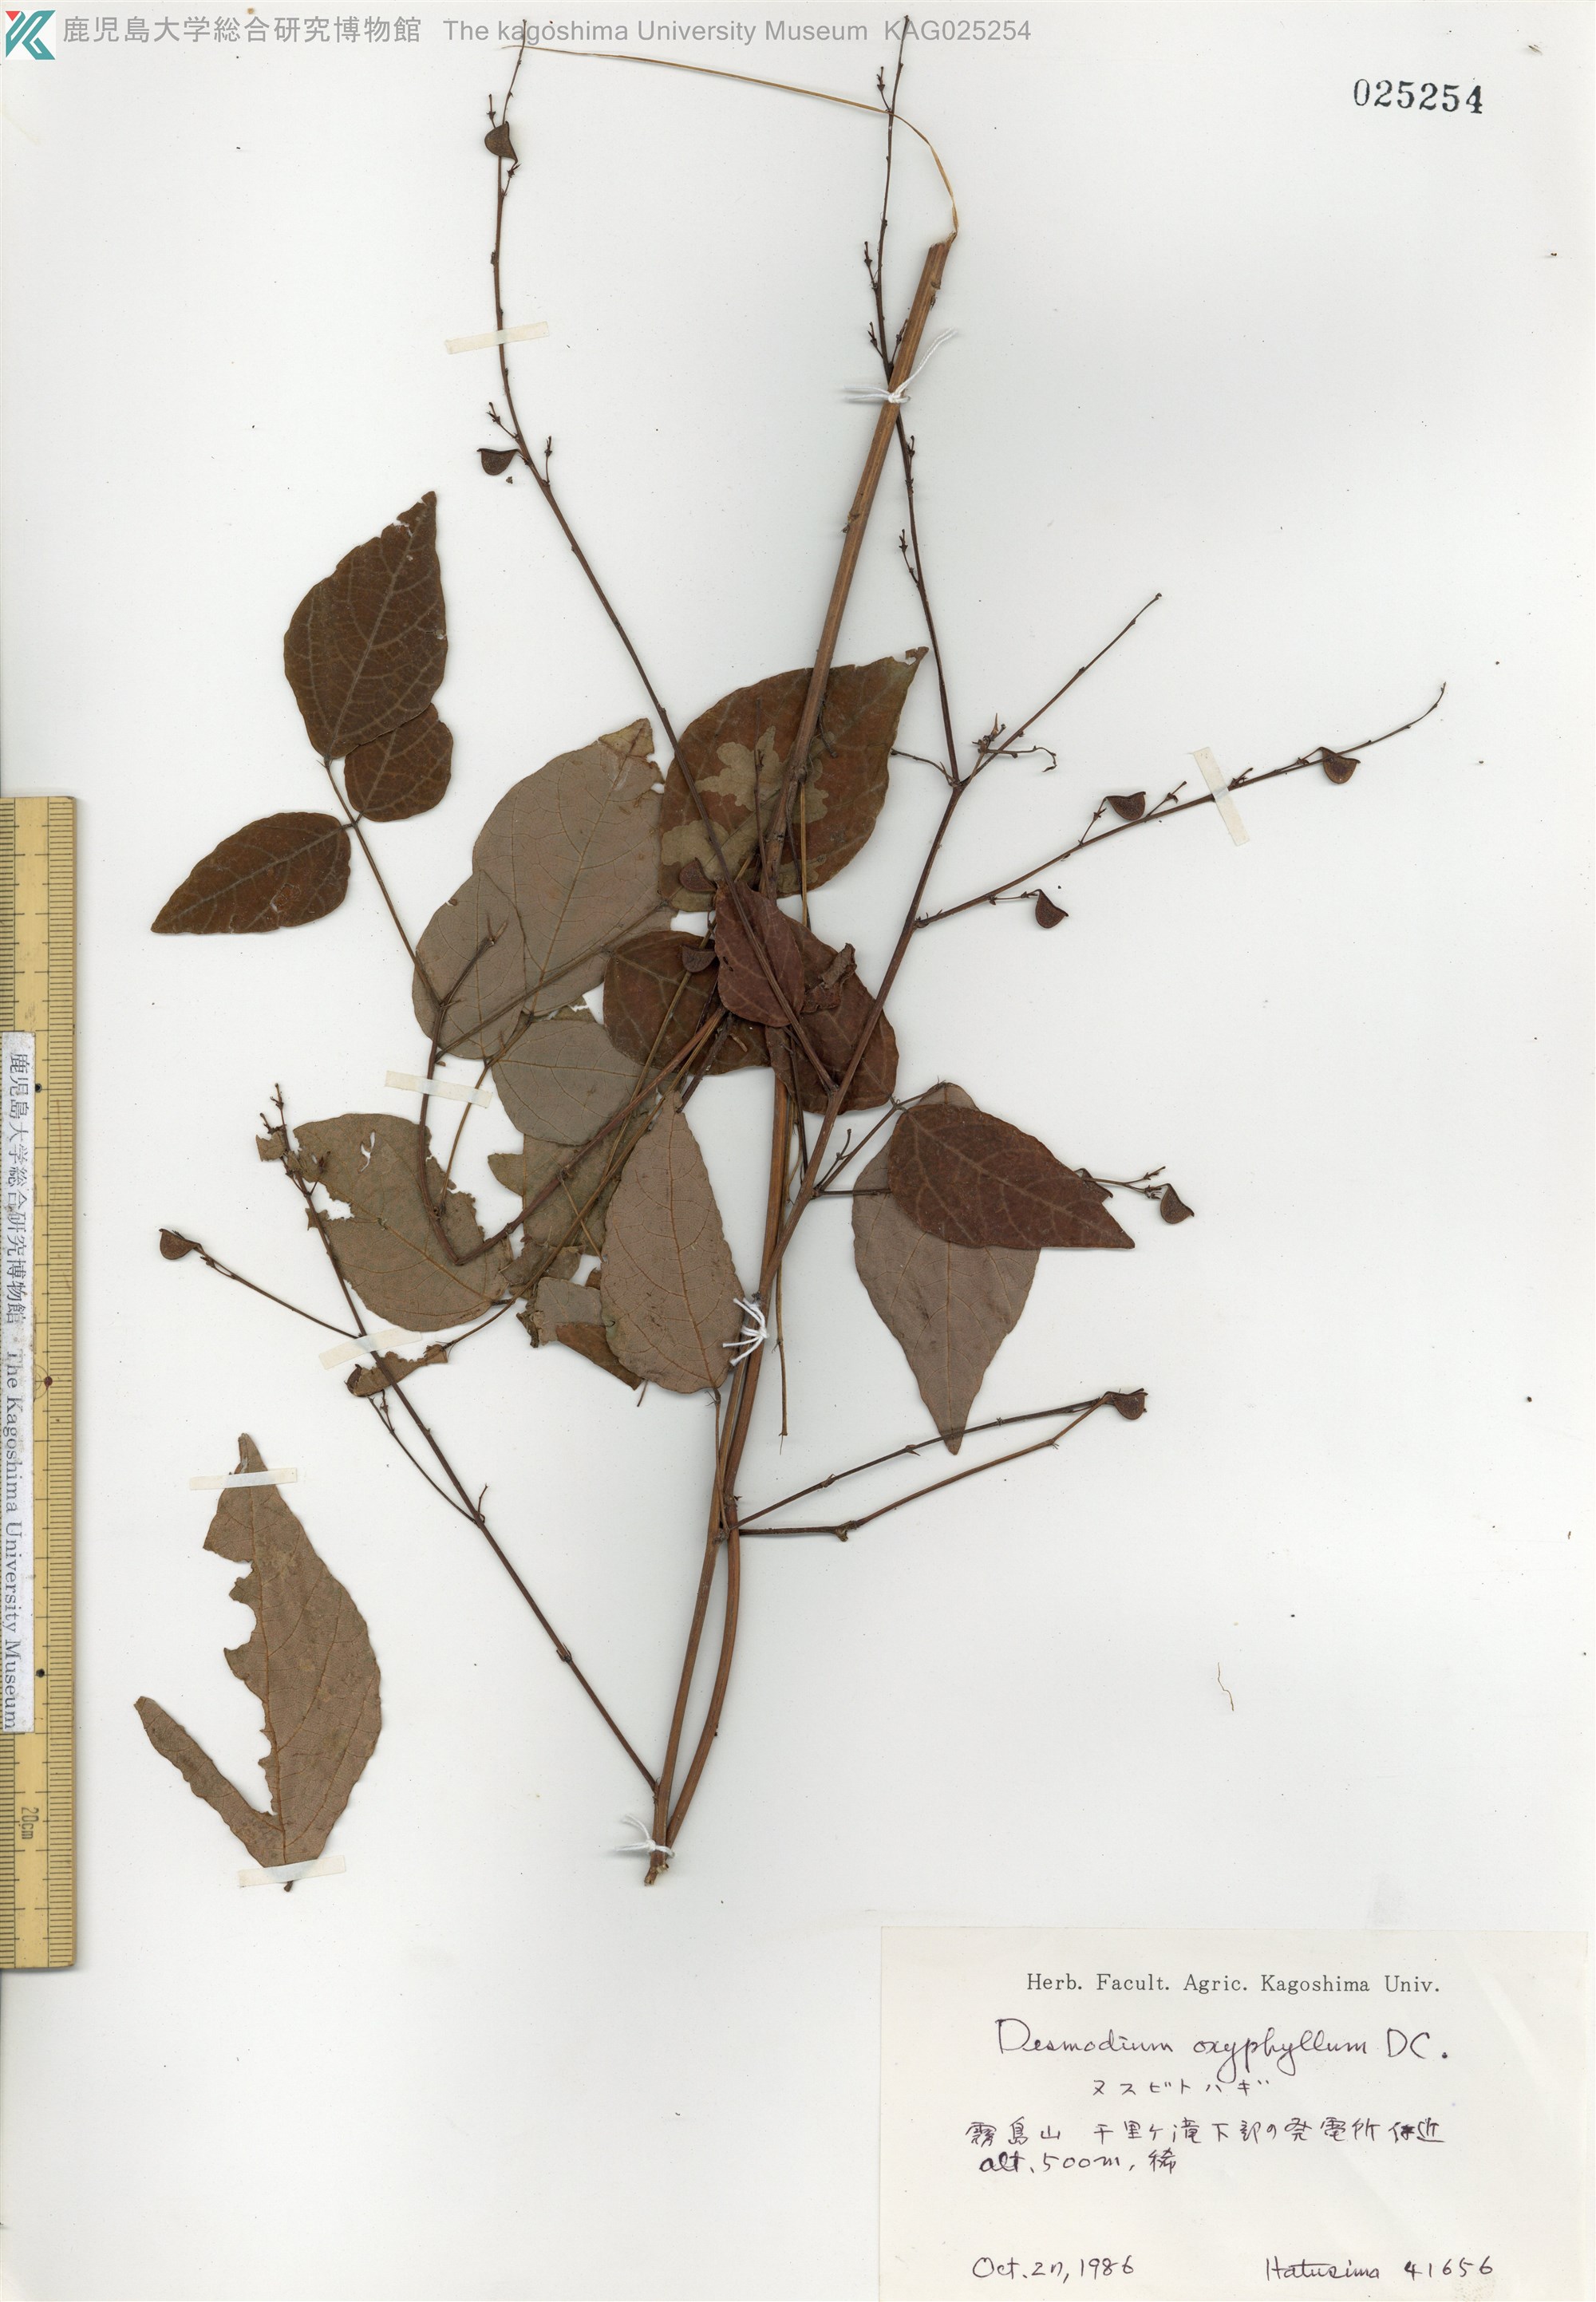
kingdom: Plantae
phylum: Tracheophyta
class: Magnoliopsida
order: Fabales
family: Fabaceae
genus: Hylodesmum
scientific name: Hylodesmum podocarpum
